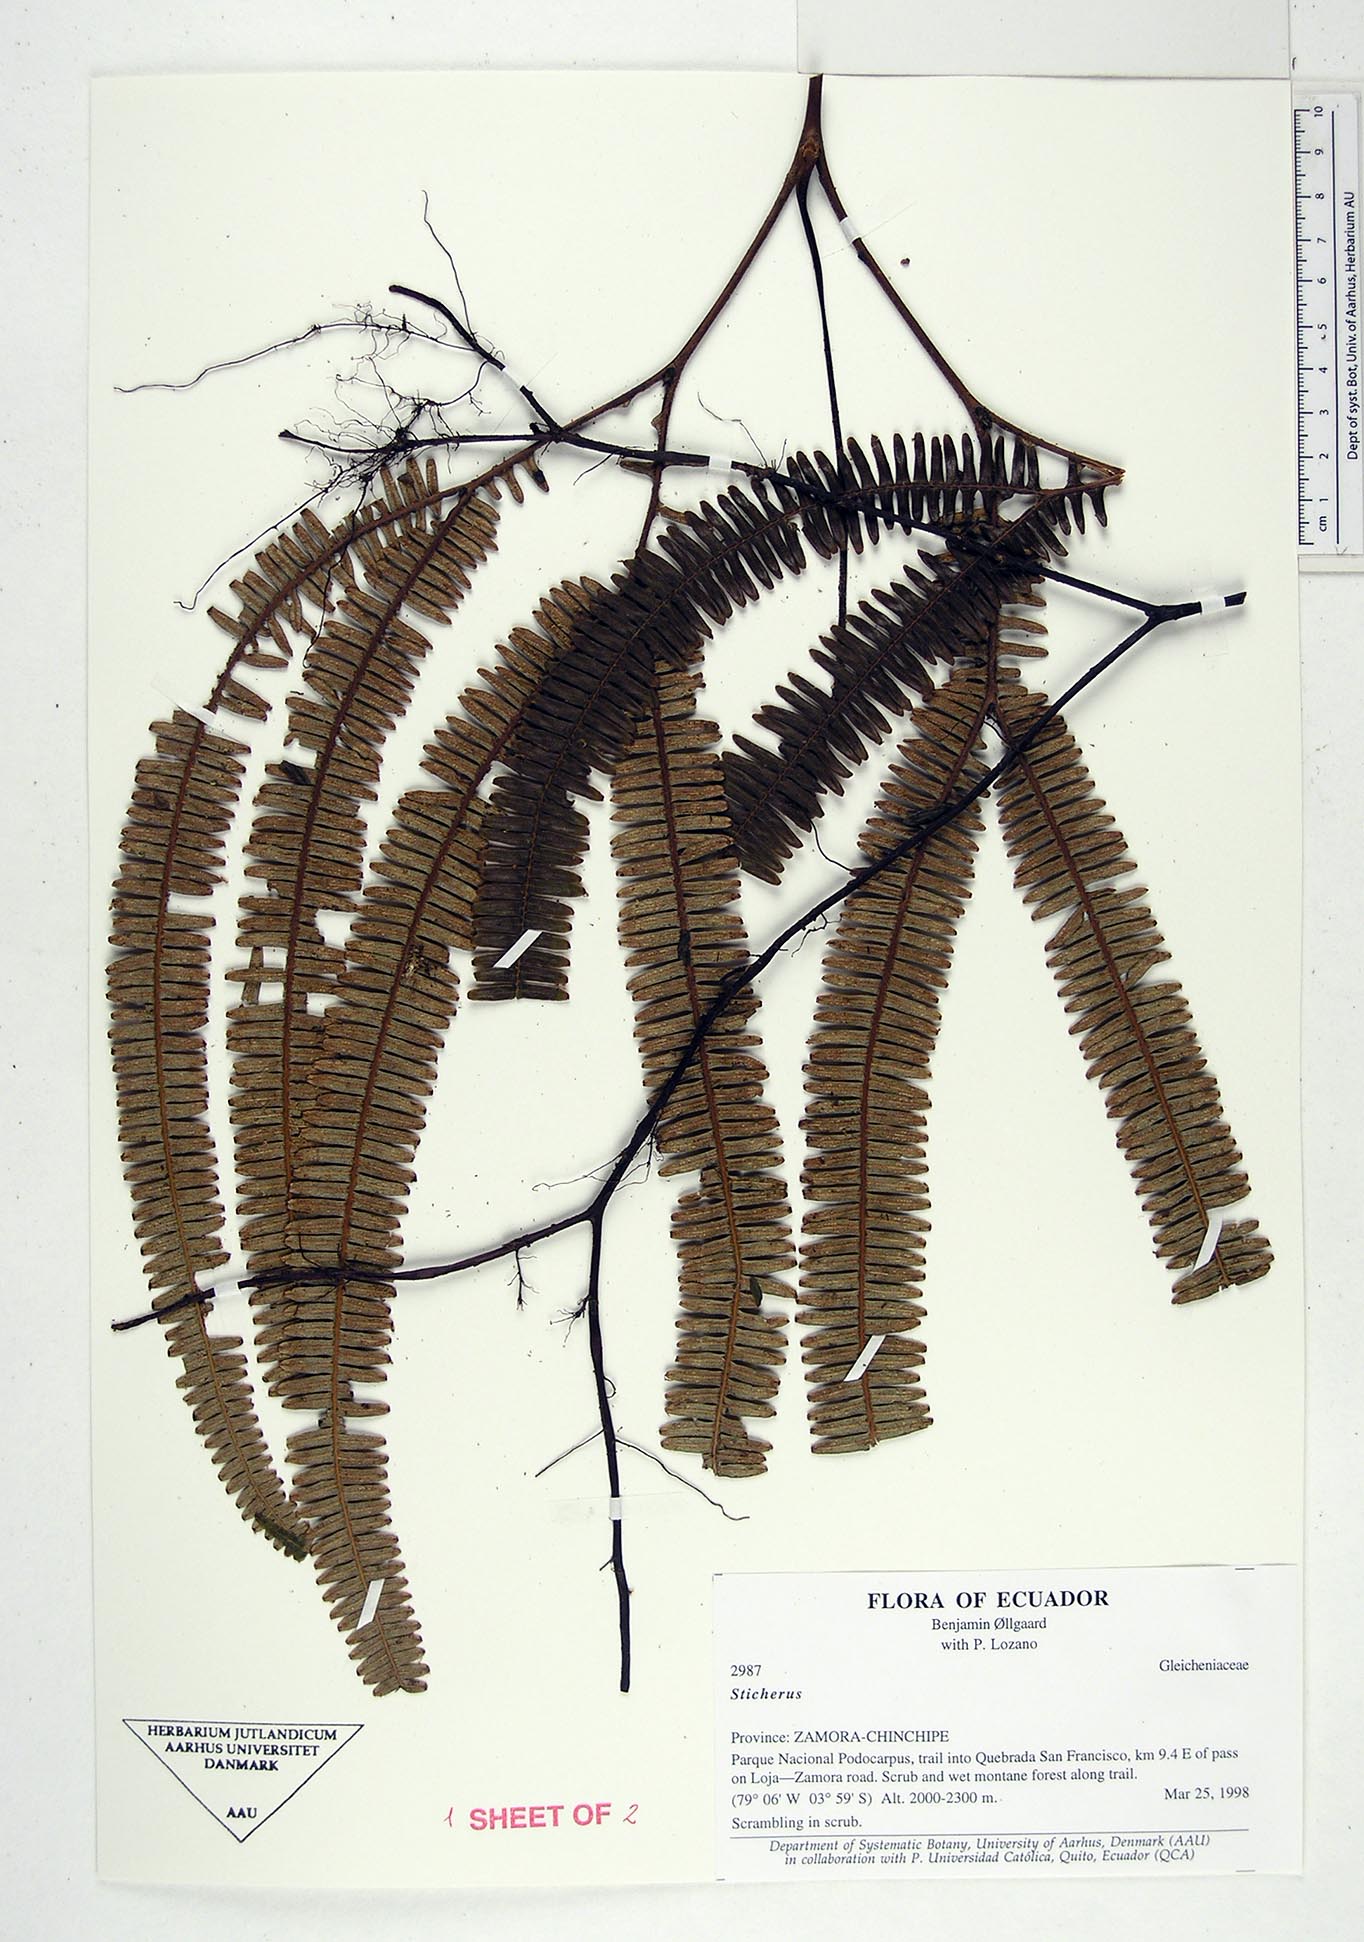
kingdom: Plantae
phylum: Tracheophyta
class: Polypodiopsida
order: Gleicheniales
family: Gleicheniaceae
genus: Sticherus
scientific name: Sticherus
